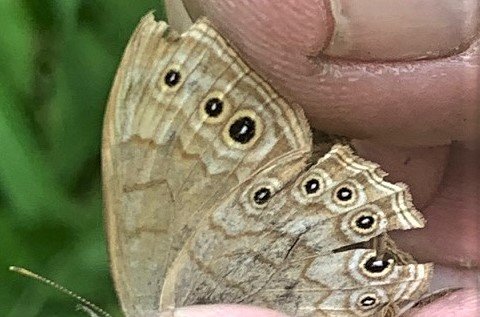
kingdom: Animalia
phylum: Arthropoda
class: Insecta
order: Lepidoptera
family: Nymphalidae
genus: Lethe
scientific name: Lethe eurydice
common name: Eyed Brown
